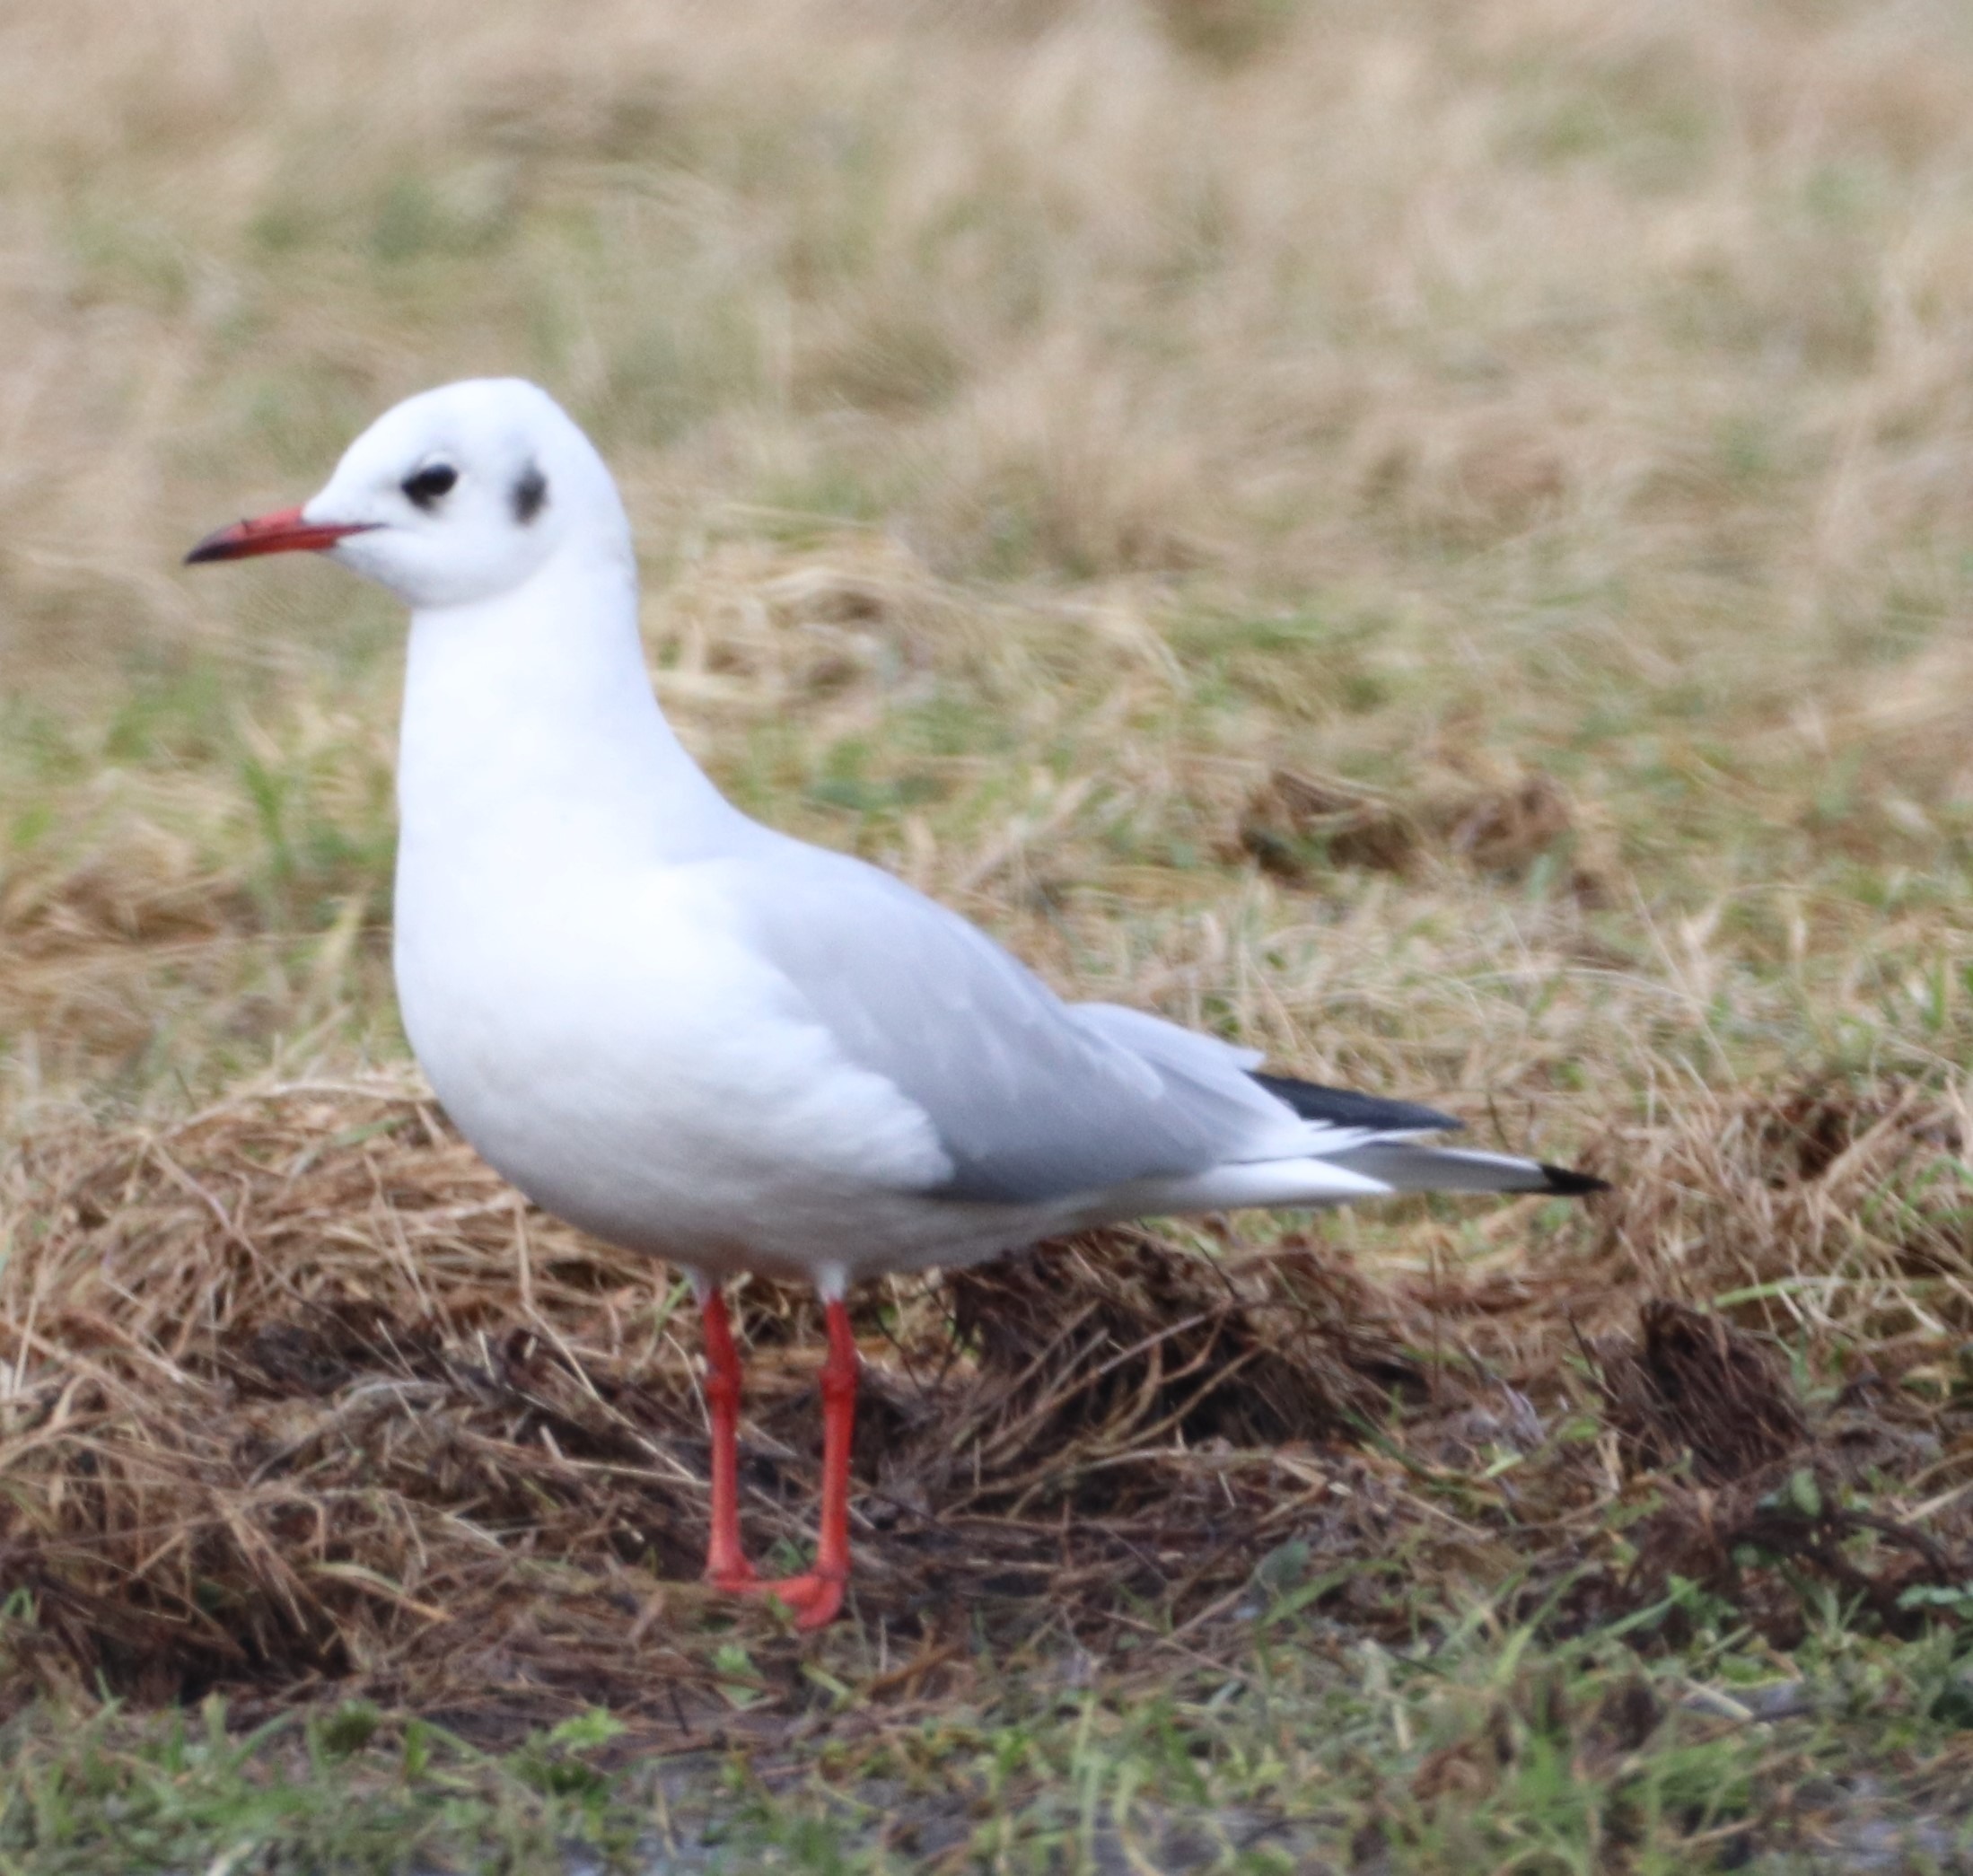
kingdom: Animalia
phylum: Chordata
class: Aves
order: Charadriiformes
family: Laridae
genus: Chroicocephalus
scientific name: Chroicocephalus ridibundus
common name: Hættemåge
